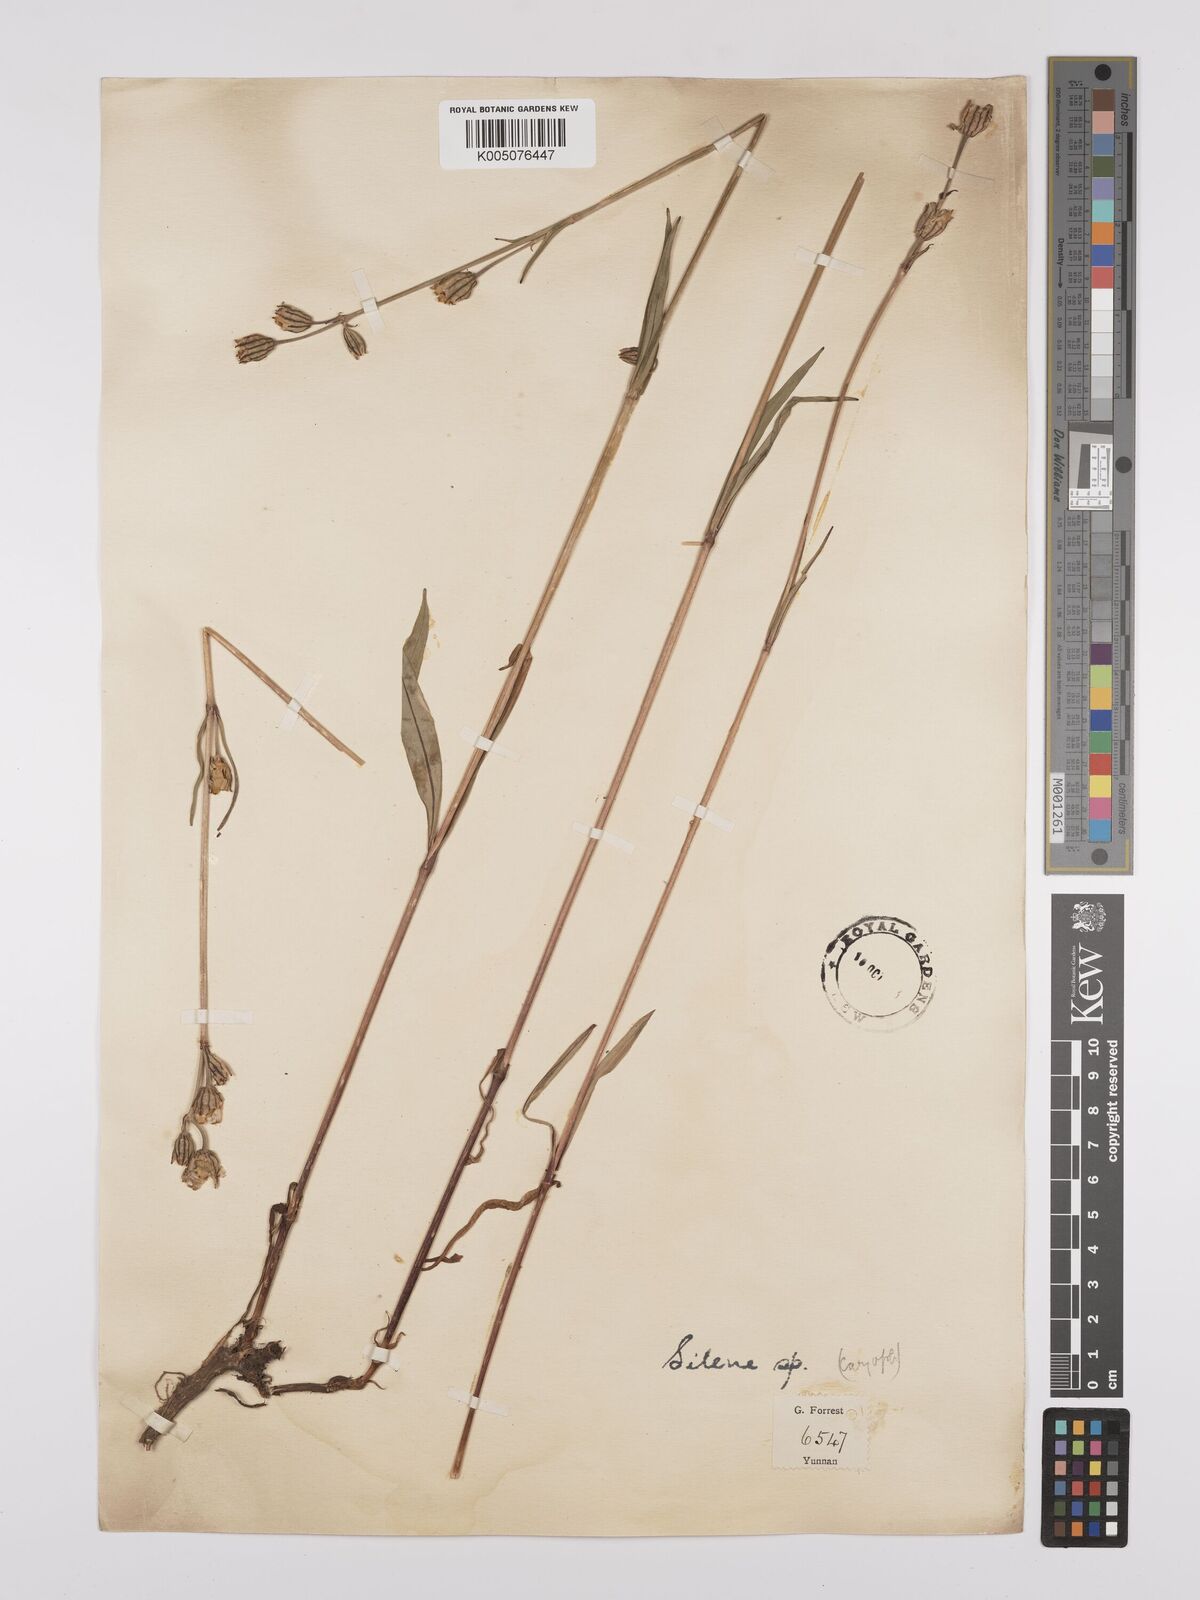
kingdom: Plantae
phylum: Tracheophyta
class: Magnoliopsida
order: Caryophyllales
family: Caryophyllaceae
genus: Silene
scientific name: Silene
